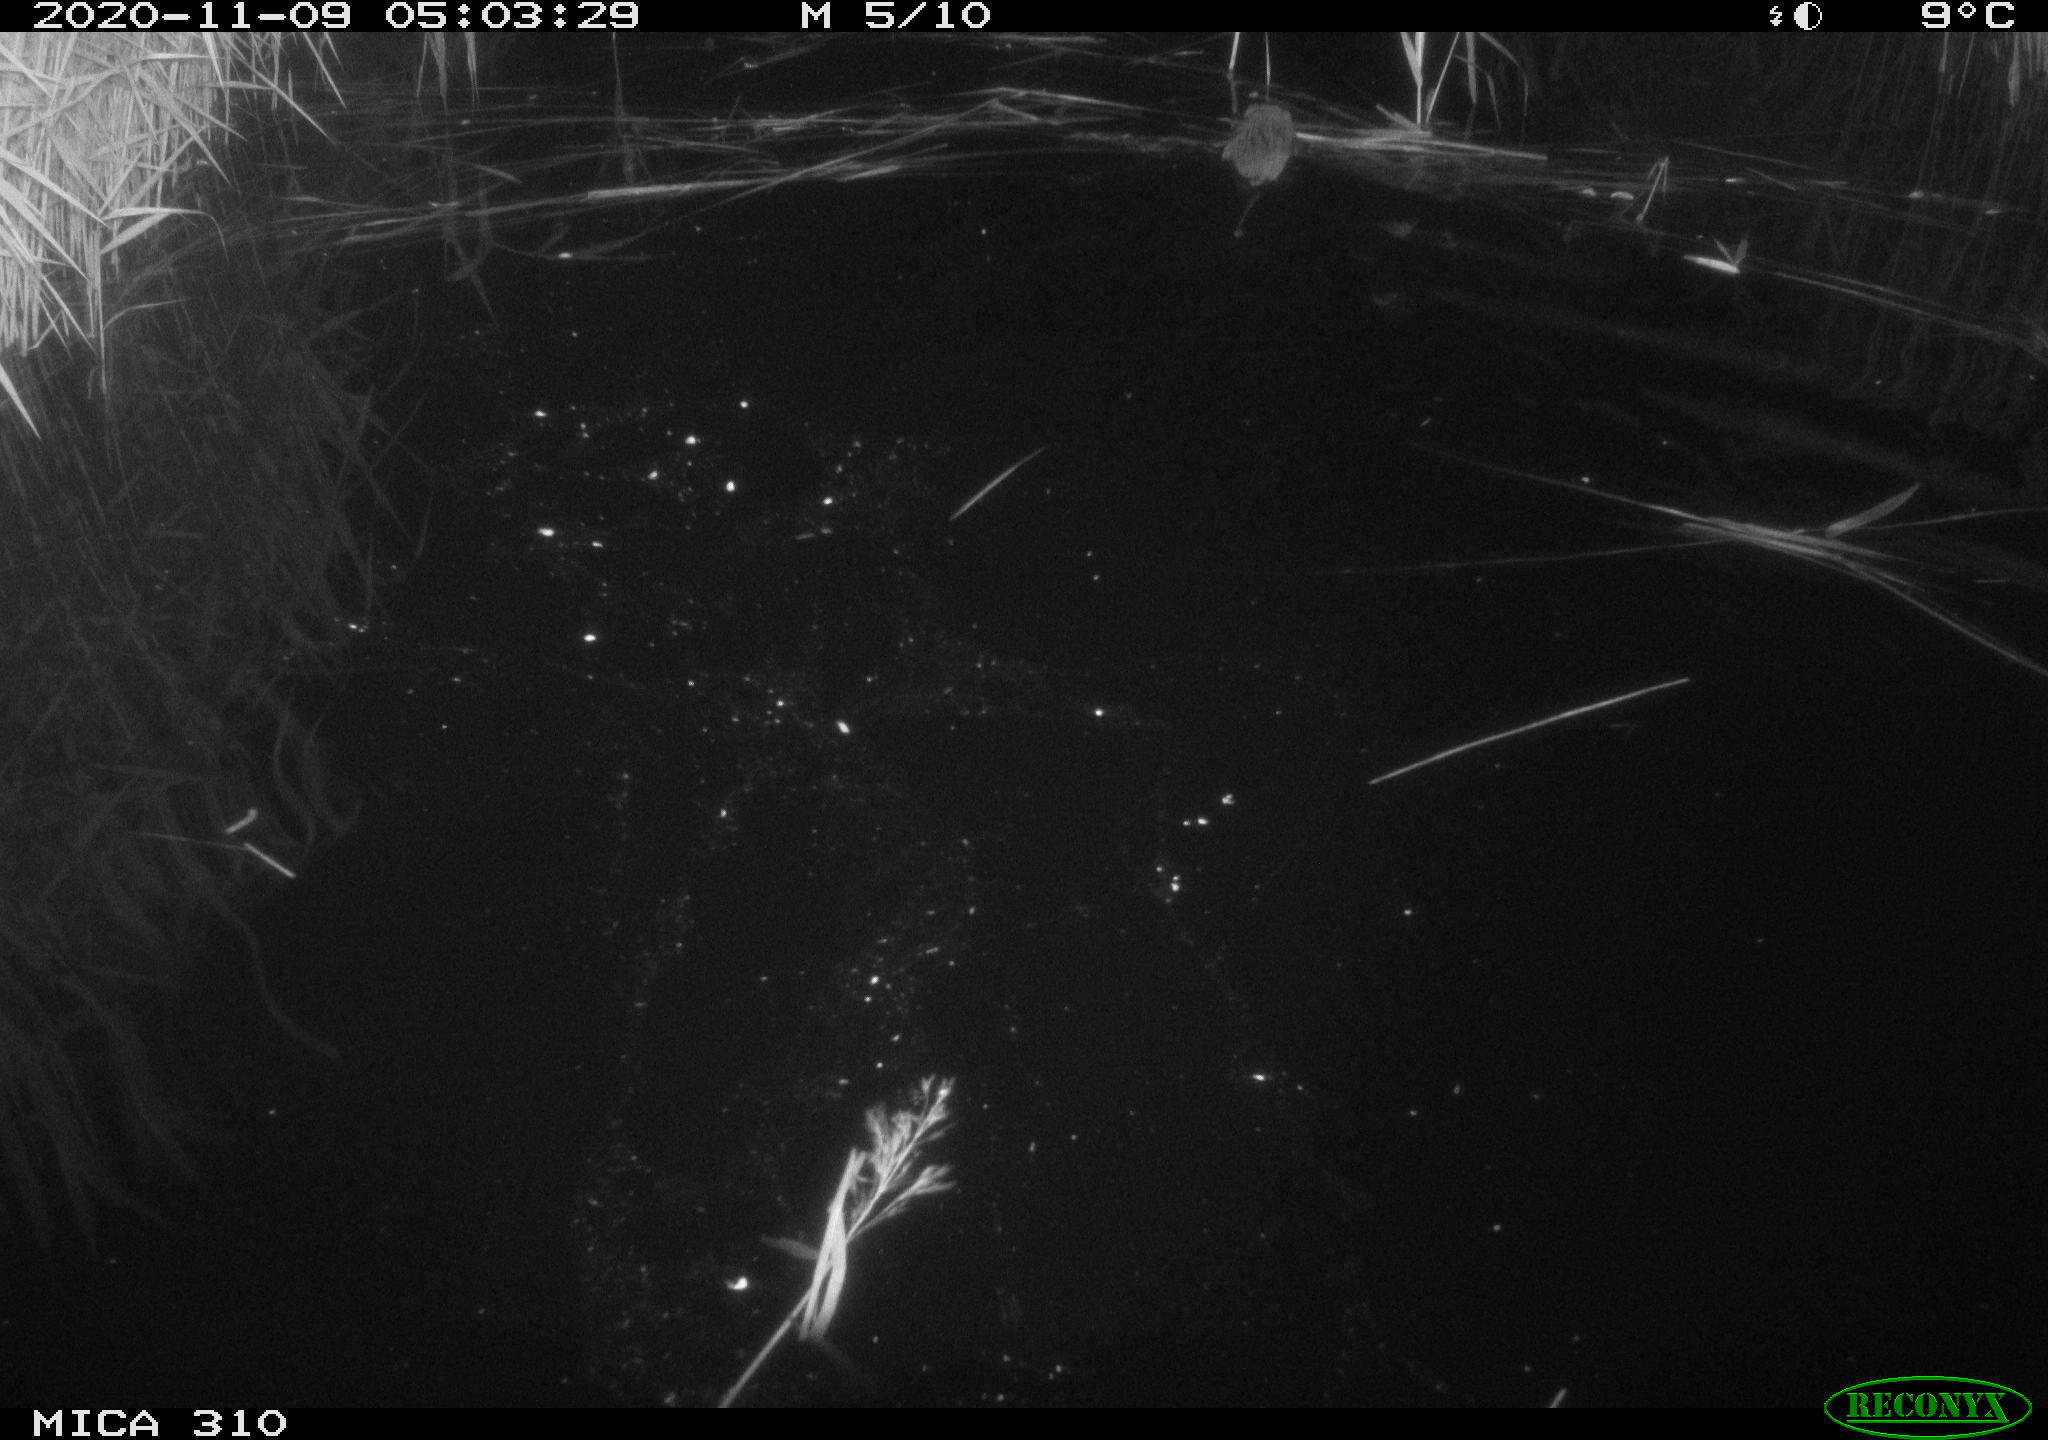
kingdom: Animalia
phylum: Chordata
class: Mammalia
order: Rodentia
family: Muridae
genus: Rattus
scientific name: Rattus norvegicus
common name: Brown rat
